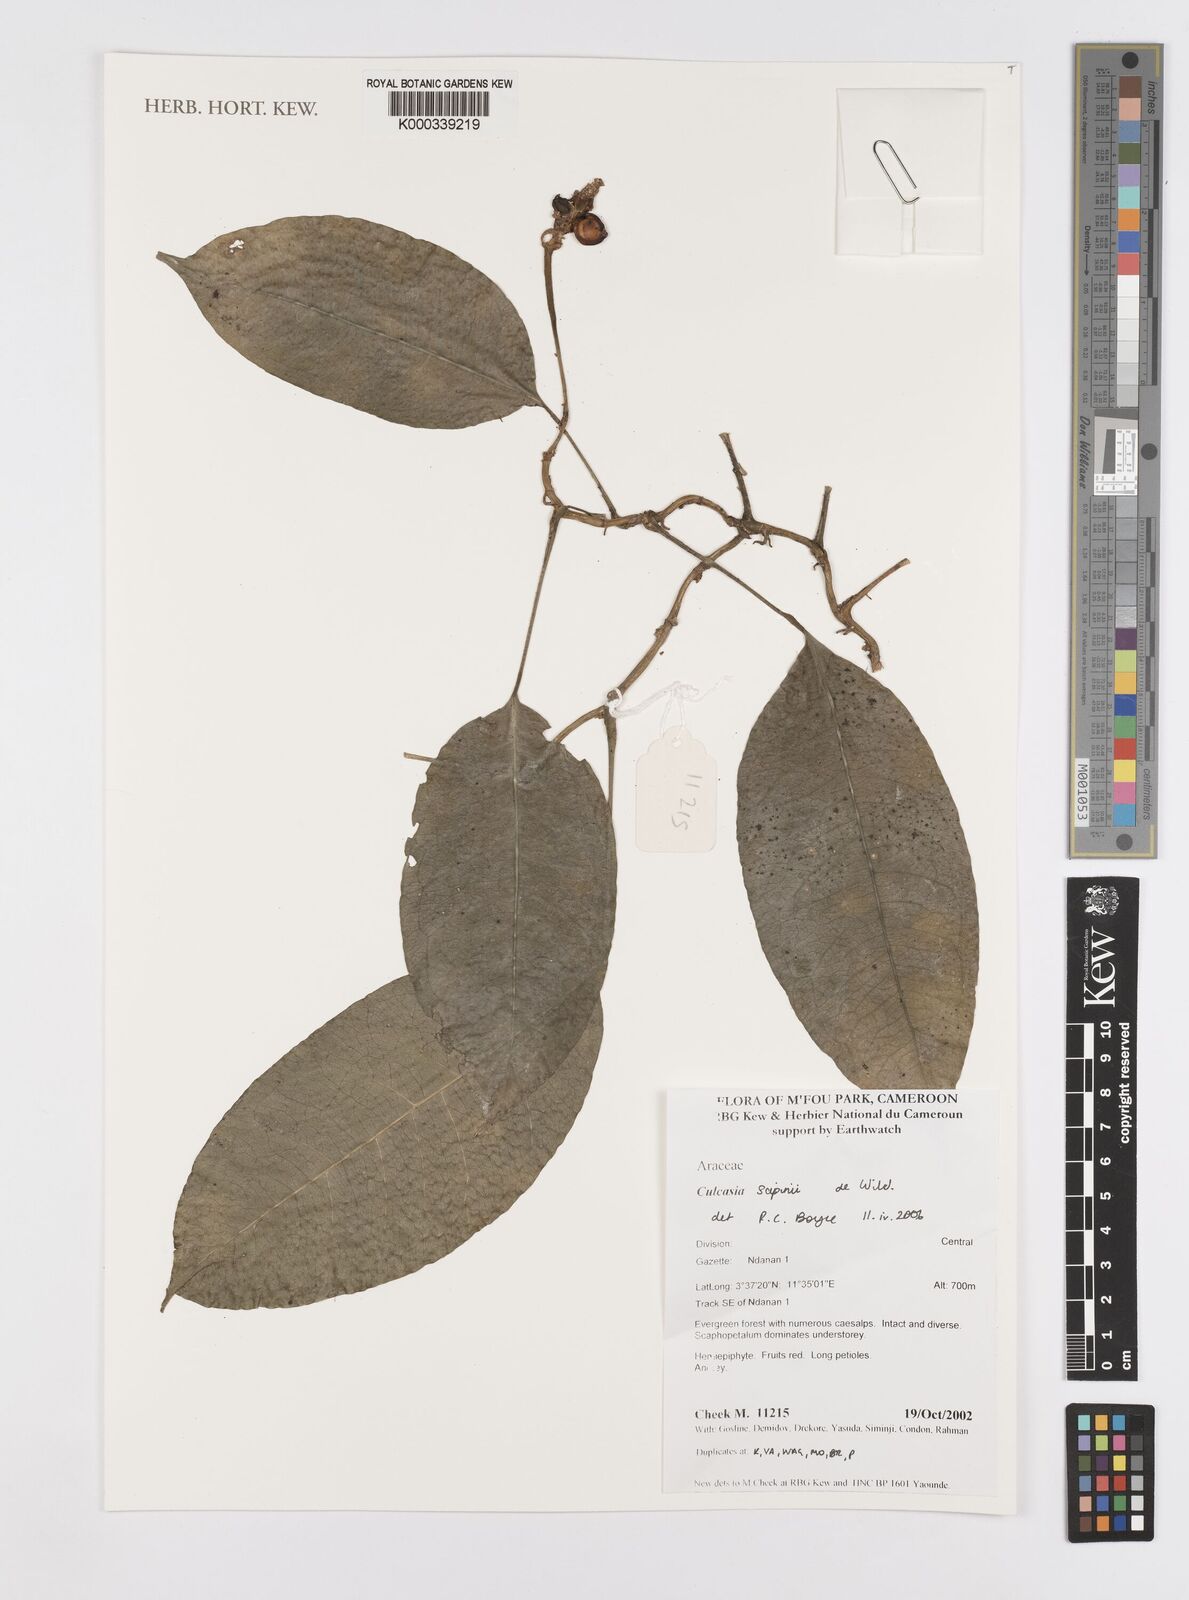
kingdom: Plantae
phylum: Tracheophyta
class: Liliopsida
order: Alismatales
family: Araceae
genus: Culcasia
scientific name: Culcasia seretii
